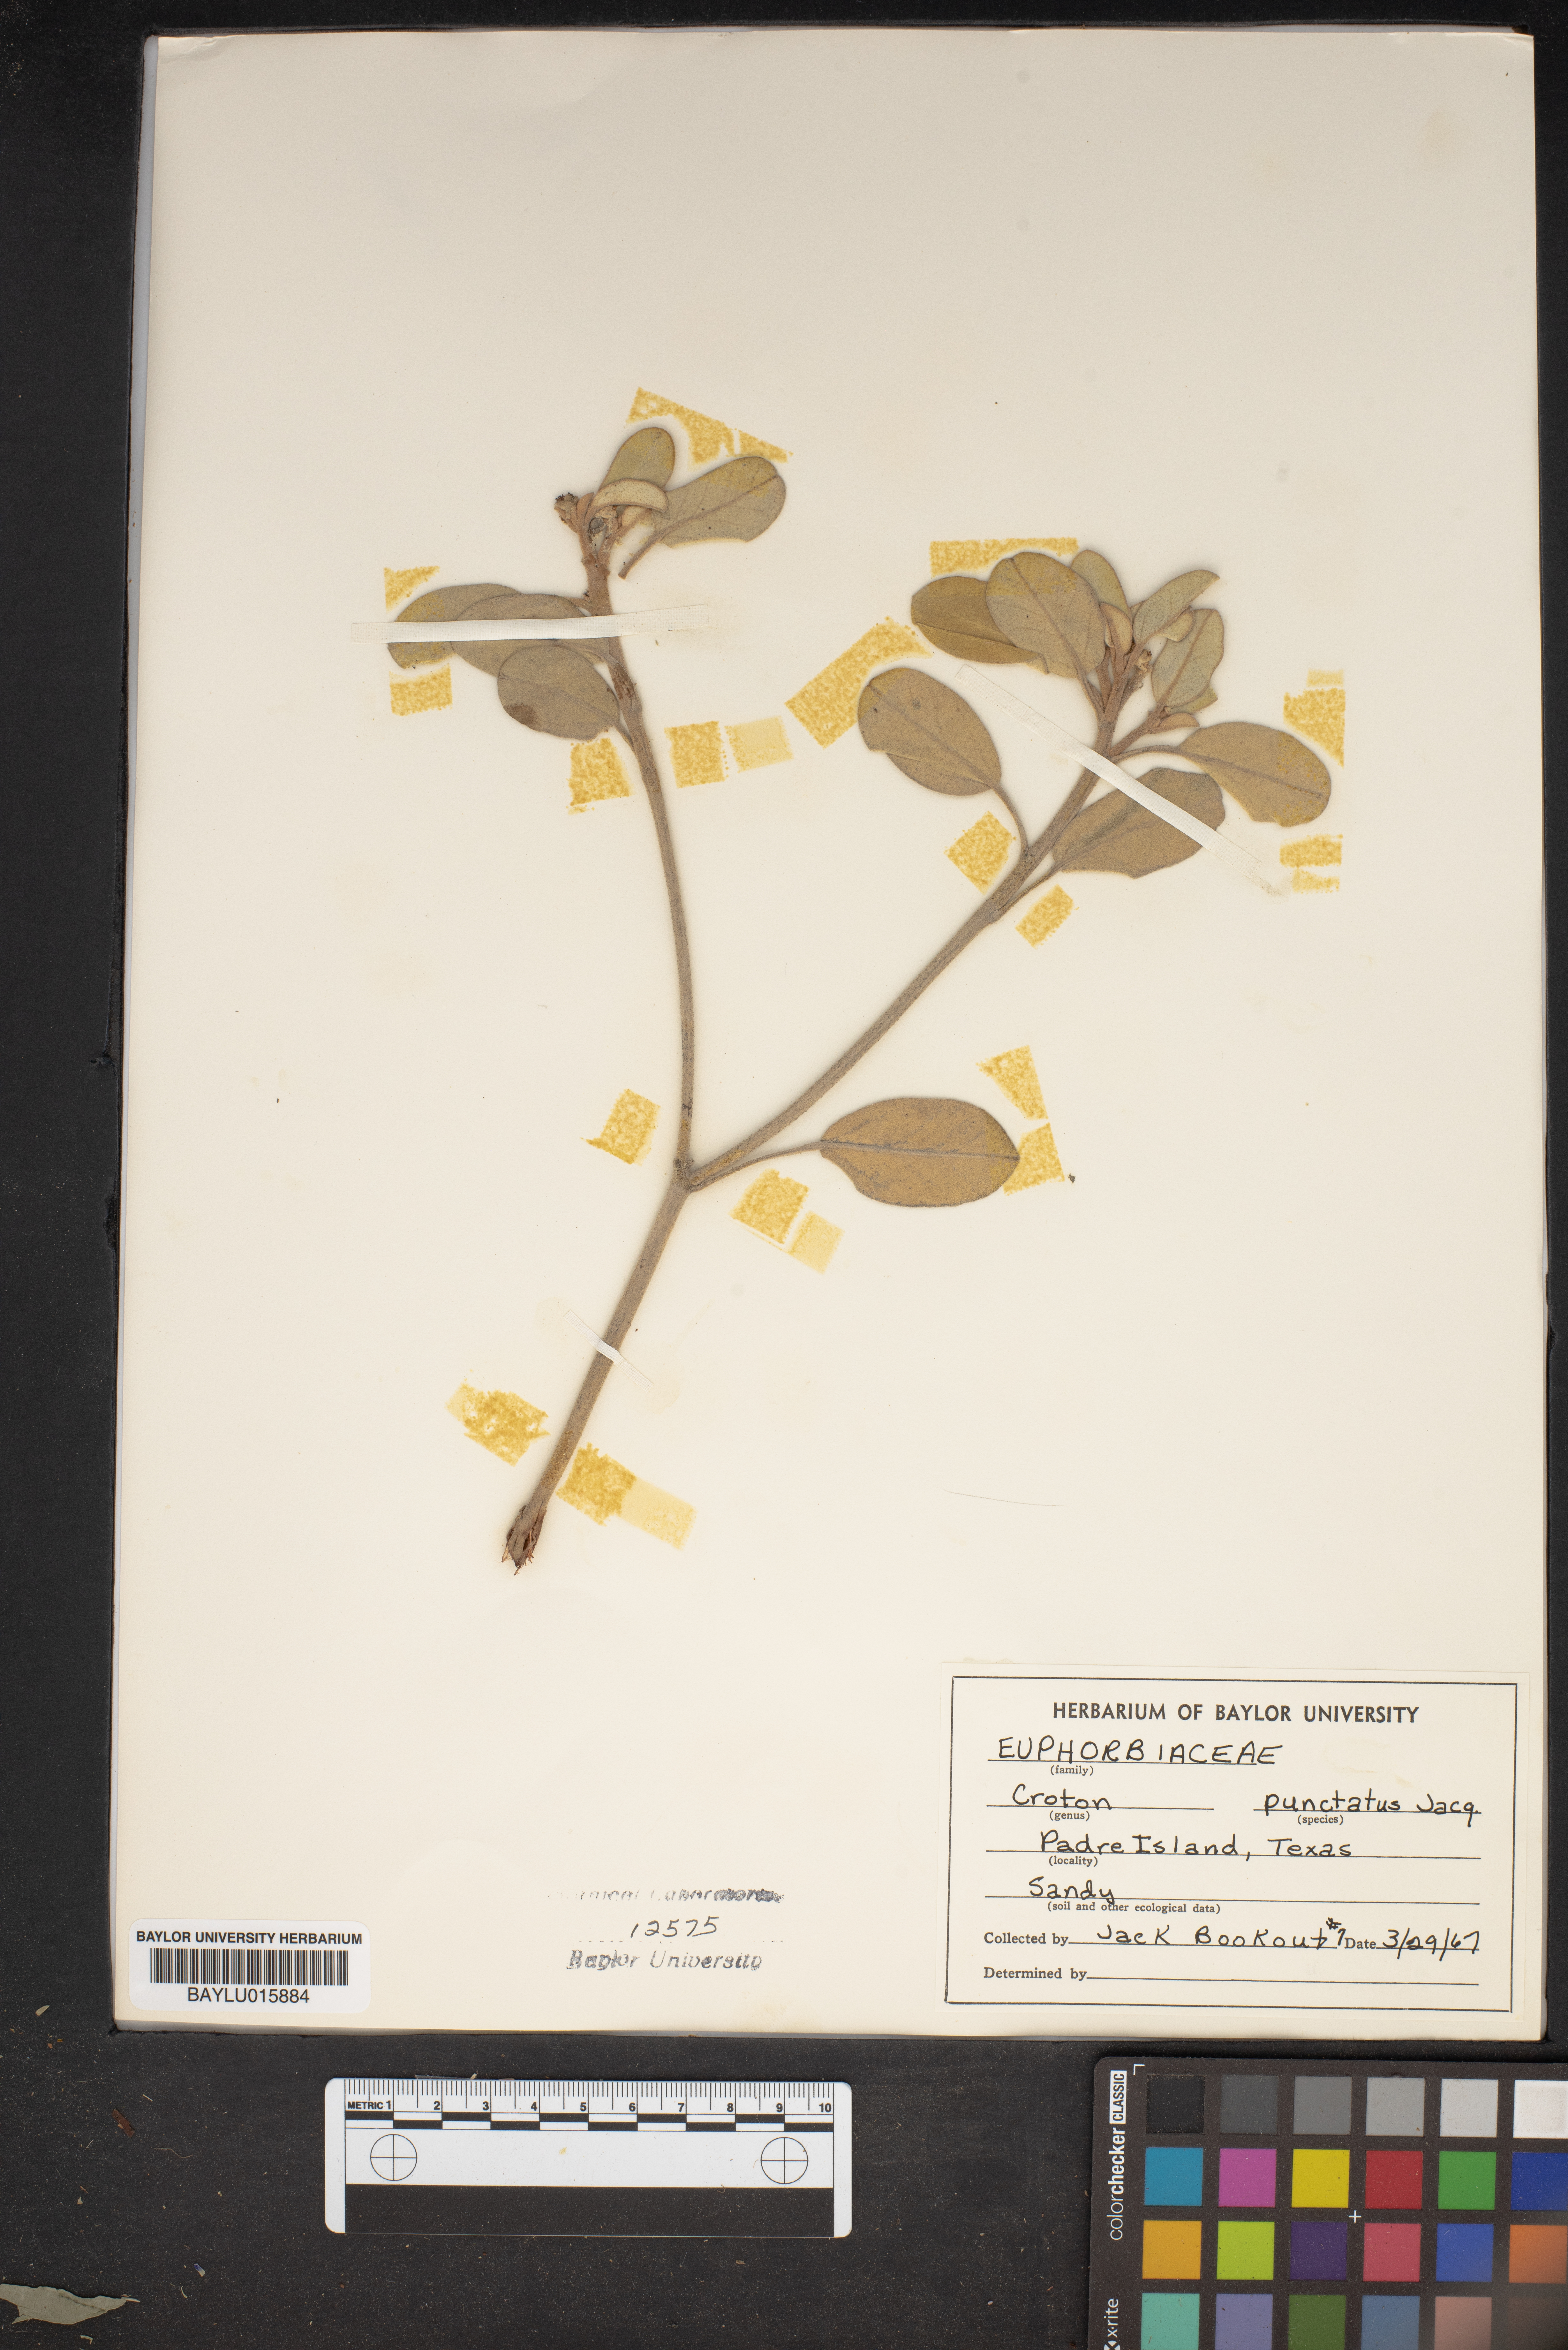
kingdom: Plantae
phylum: Tracheophyta
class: Magnoliopsida
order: Malpighiales
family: Euphorbiaceae
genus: Croton
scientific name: Croton punctatus
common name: Beach-tea
